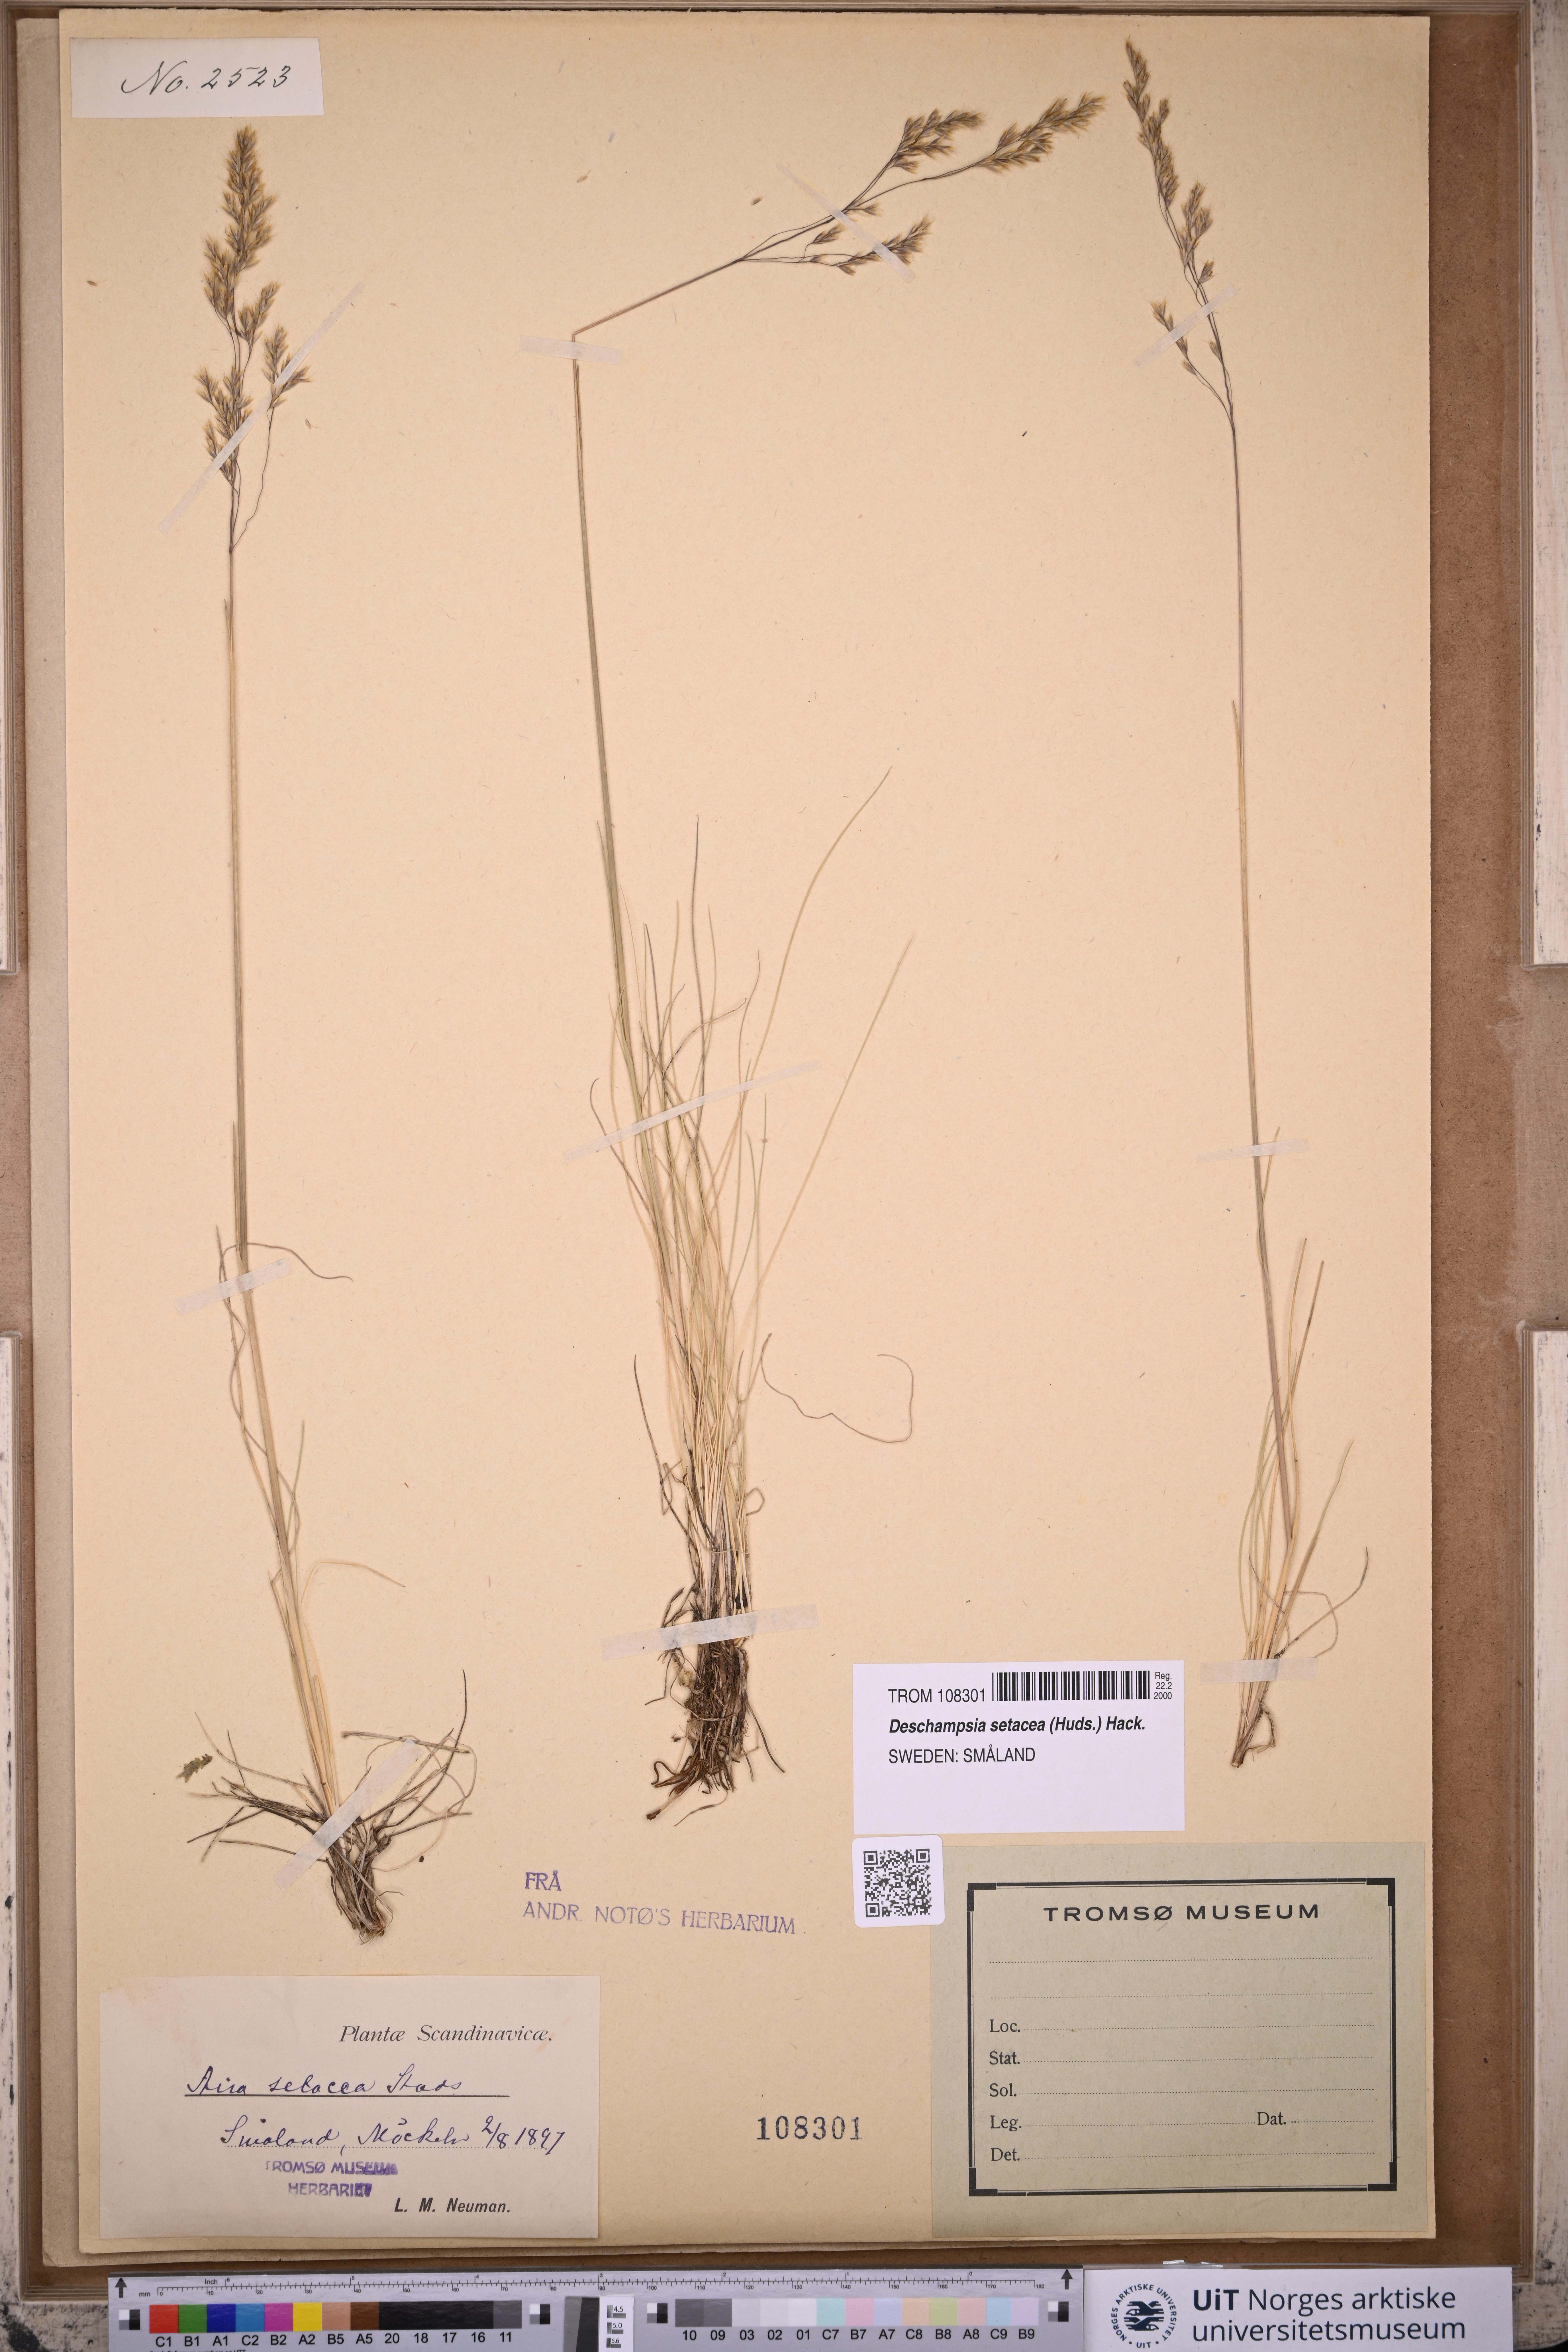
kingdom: Plantae
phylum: Tracheophyta
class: Liliopsida
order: Poales
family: Poaceae
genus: Deschampsia
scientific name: Deschampsia setacea
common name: Bog hair-grass
